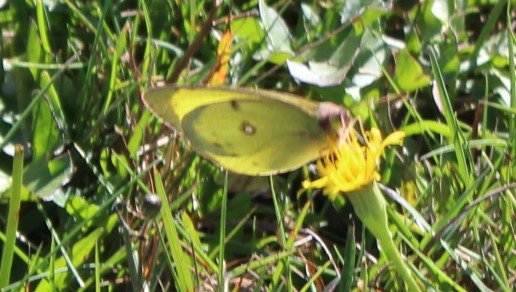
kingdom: Animalia
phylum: Arthropoda
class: Insecta
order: Lepidoptera
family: Pieridae
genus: Colias
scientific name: Colias philodice
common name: Clouded Sulphur
